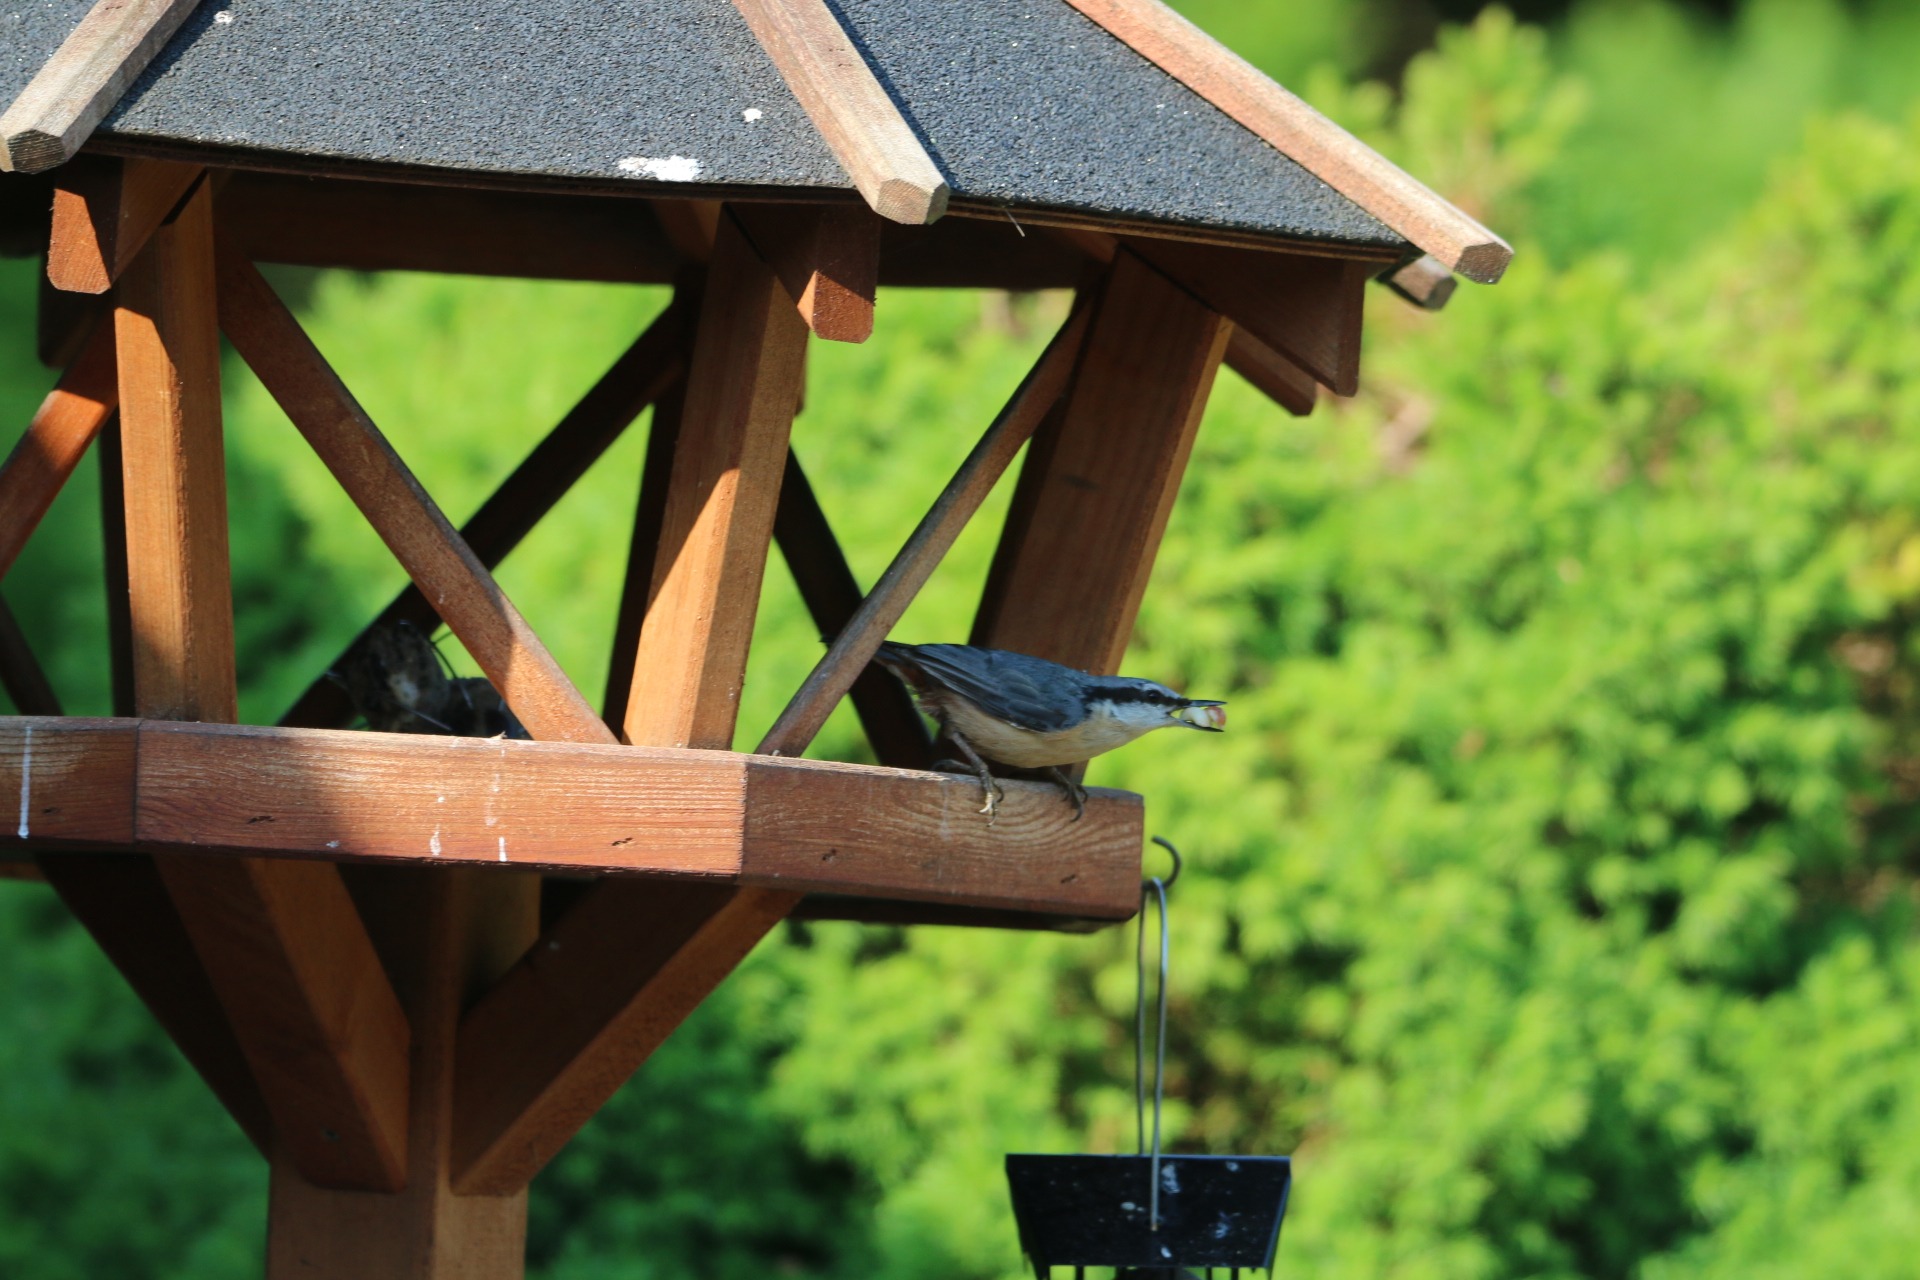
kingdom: Animalia
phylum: Chordata
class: Aves
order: Passeriformes
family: Sittidae
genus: Sitta
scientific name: Sitta europaea
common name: Spætmejse
